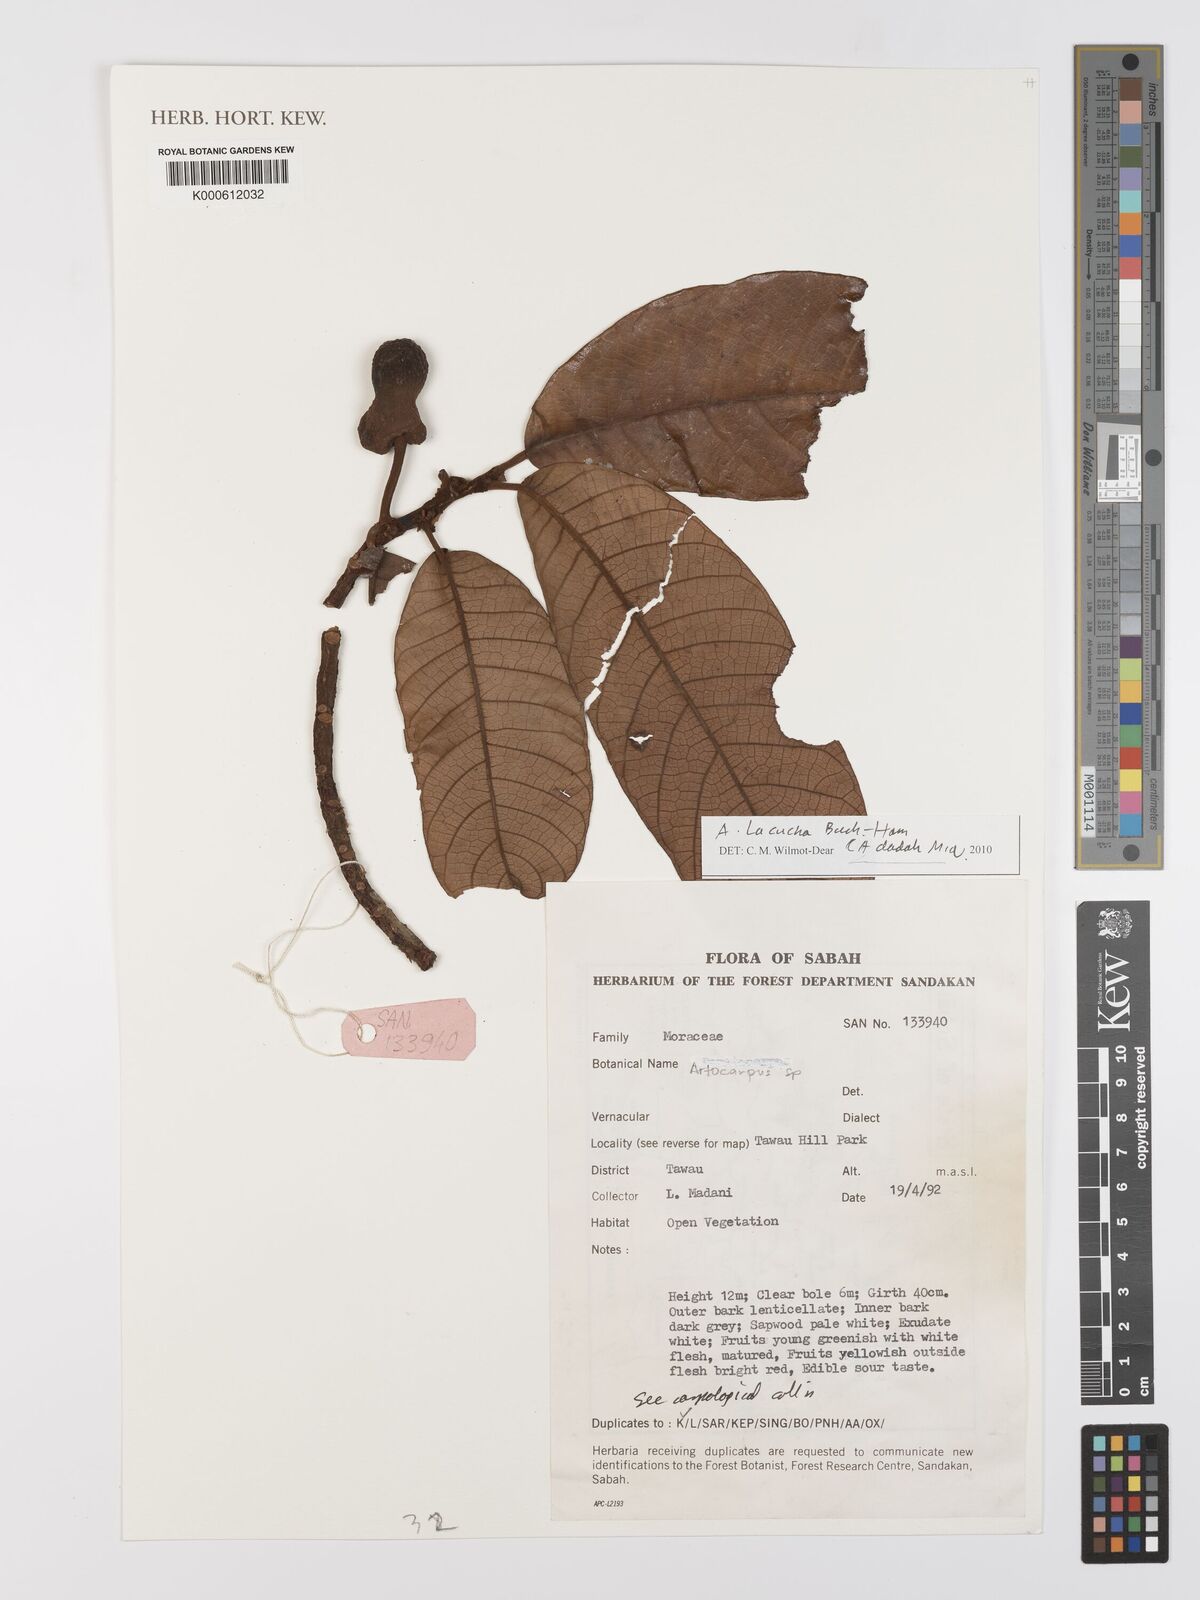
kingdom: Plantae
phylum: Tracheophyta
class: Magnoliopsida
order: Rosales
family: Moraceae
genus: Artocarpus
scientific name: Artocarpus lacucha
